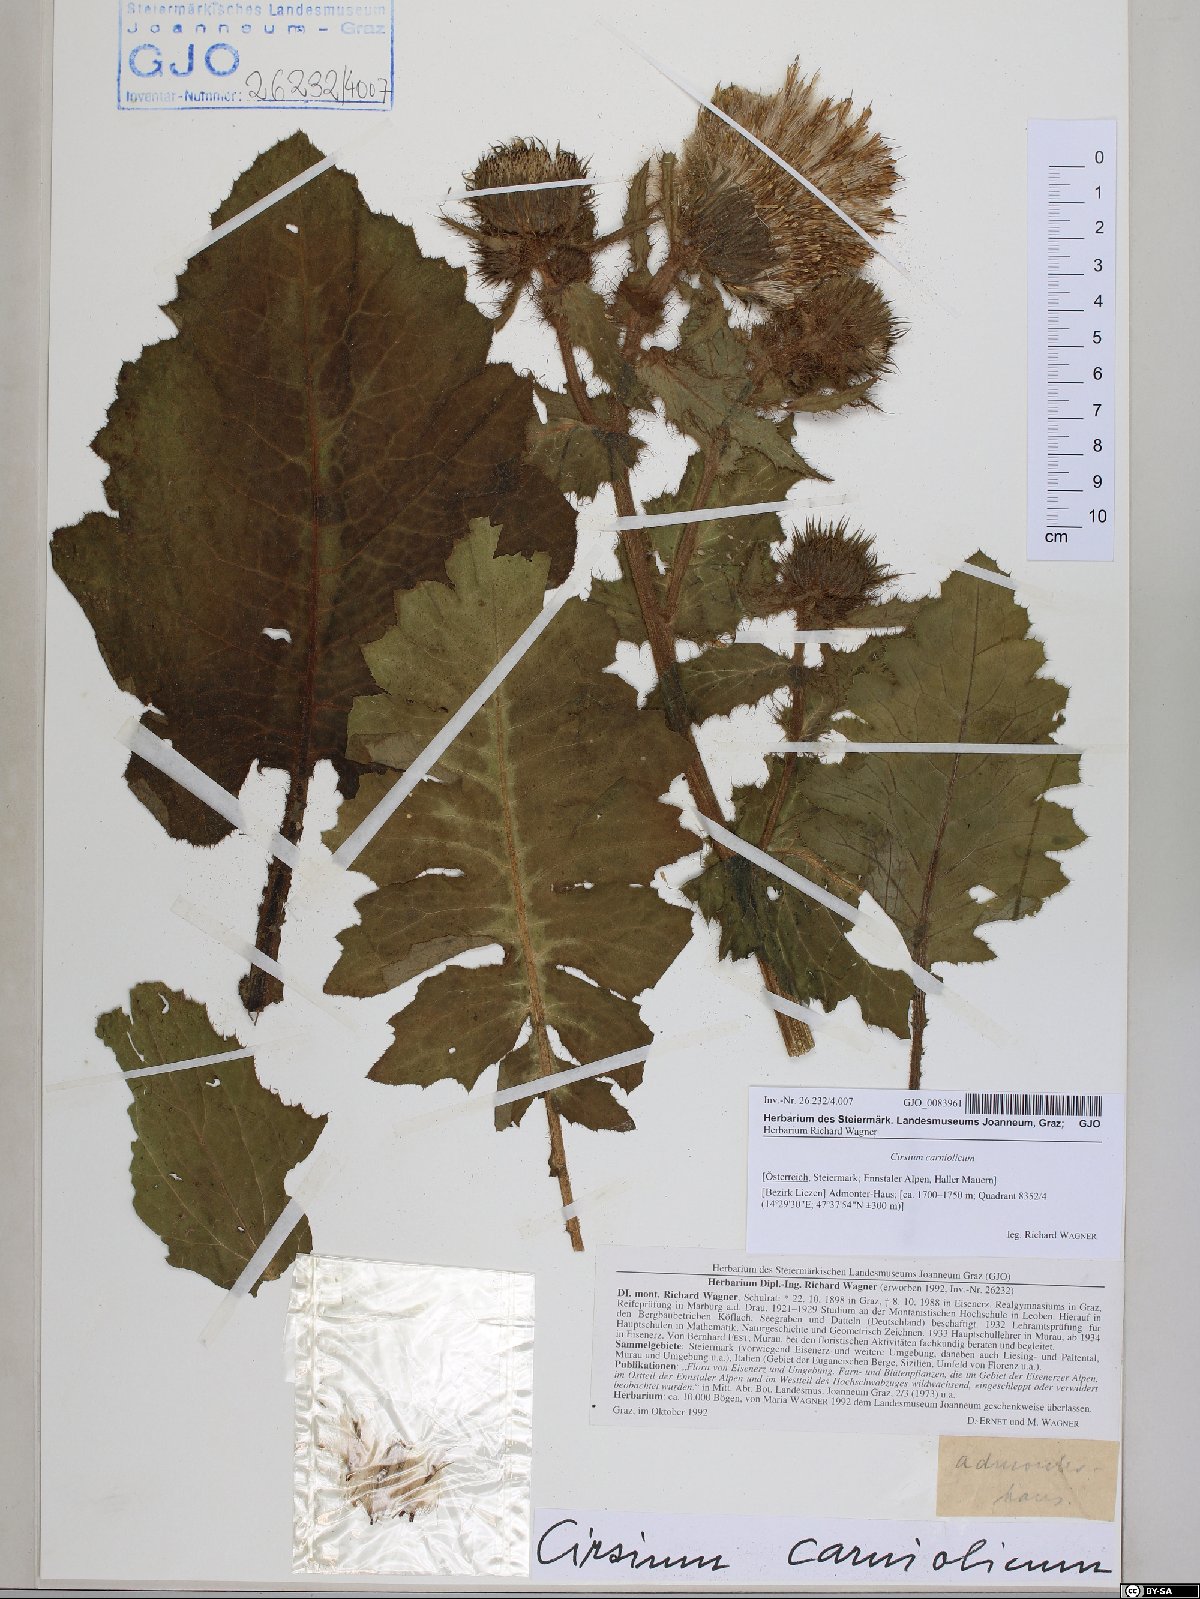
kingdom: Plantae
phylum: Tracheophyta
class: Magnoliopsida
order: Asterales
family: Asteraceae
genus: Cirsium
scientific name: Cirsium carniolicum
